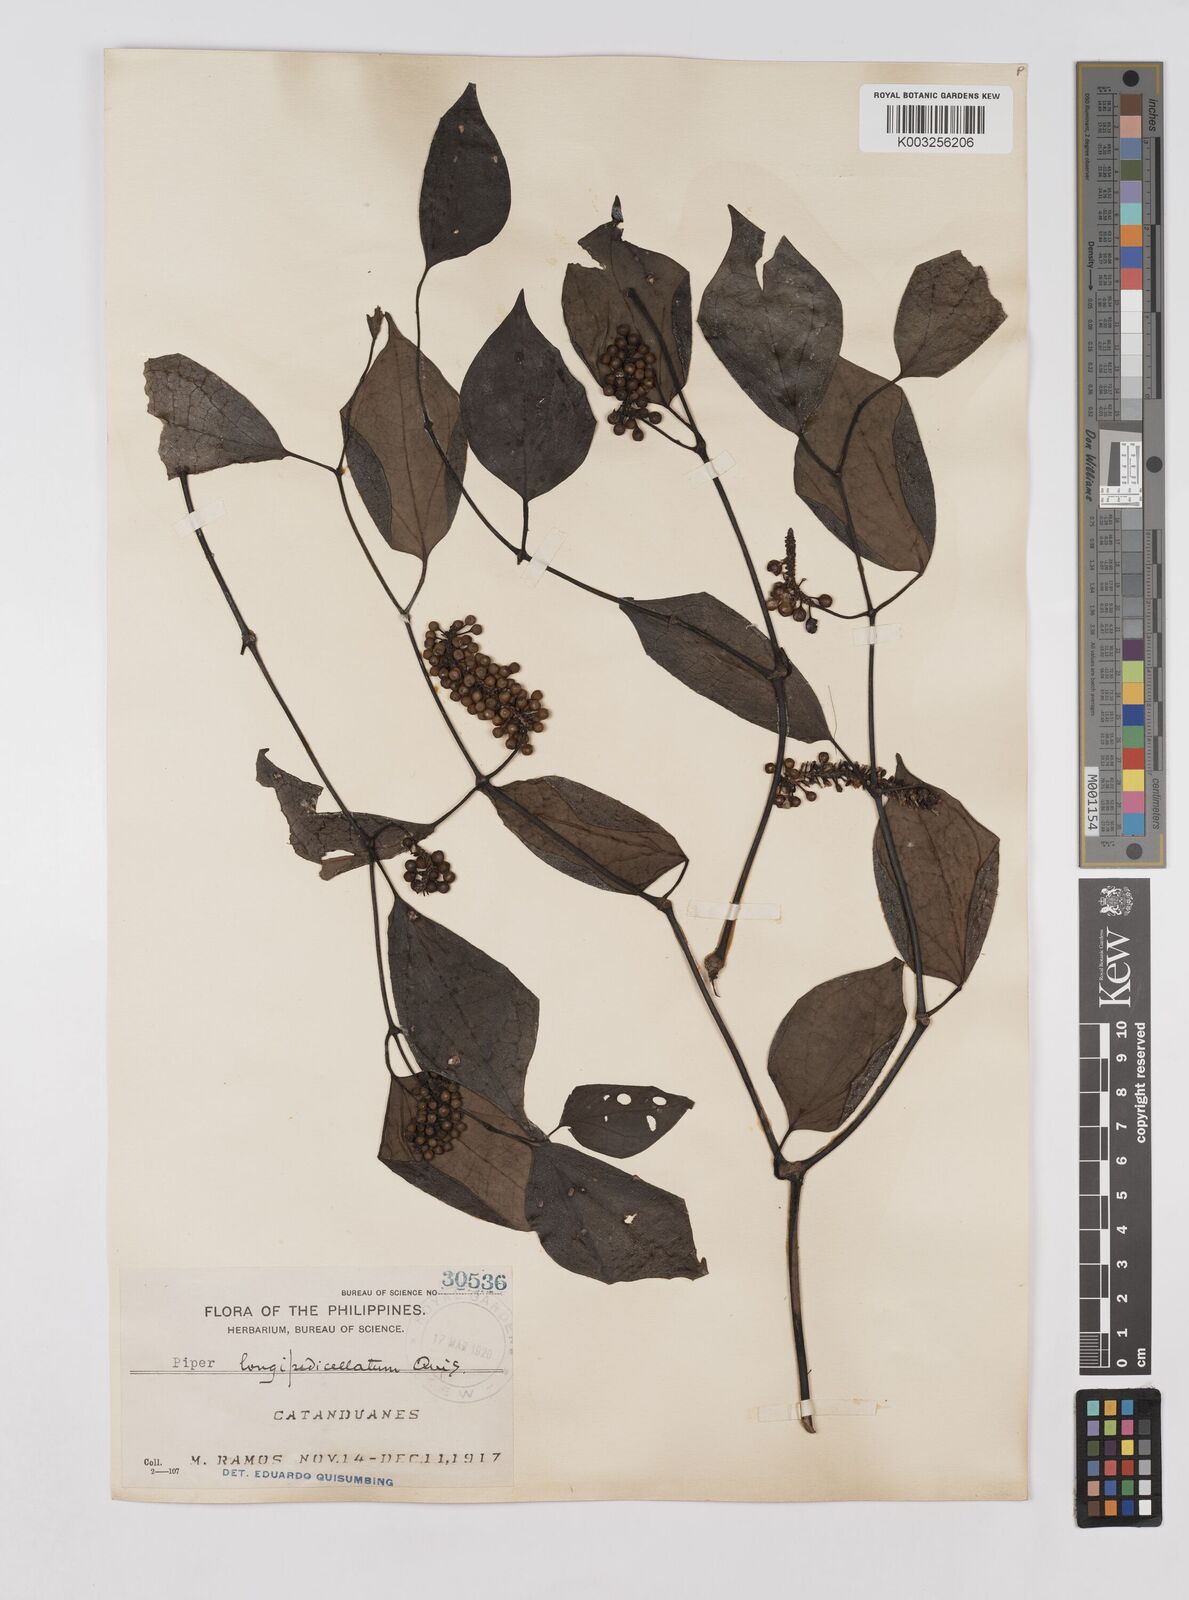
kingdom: Plantae
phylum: Tracheophyta
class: Magnoliopsida
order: Piperales
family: Piperaceae
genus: Piper
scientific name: Piper longipedicellatum
